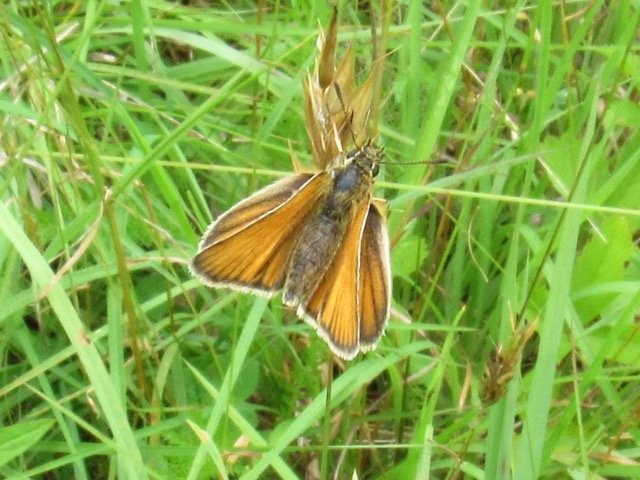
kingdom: Animalia
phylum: Arthropoda
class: Insecta
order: Lepidoptera
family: Hesperiidae
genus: Thymelicus
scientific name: Thymelicus lineola
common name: European Skipper
